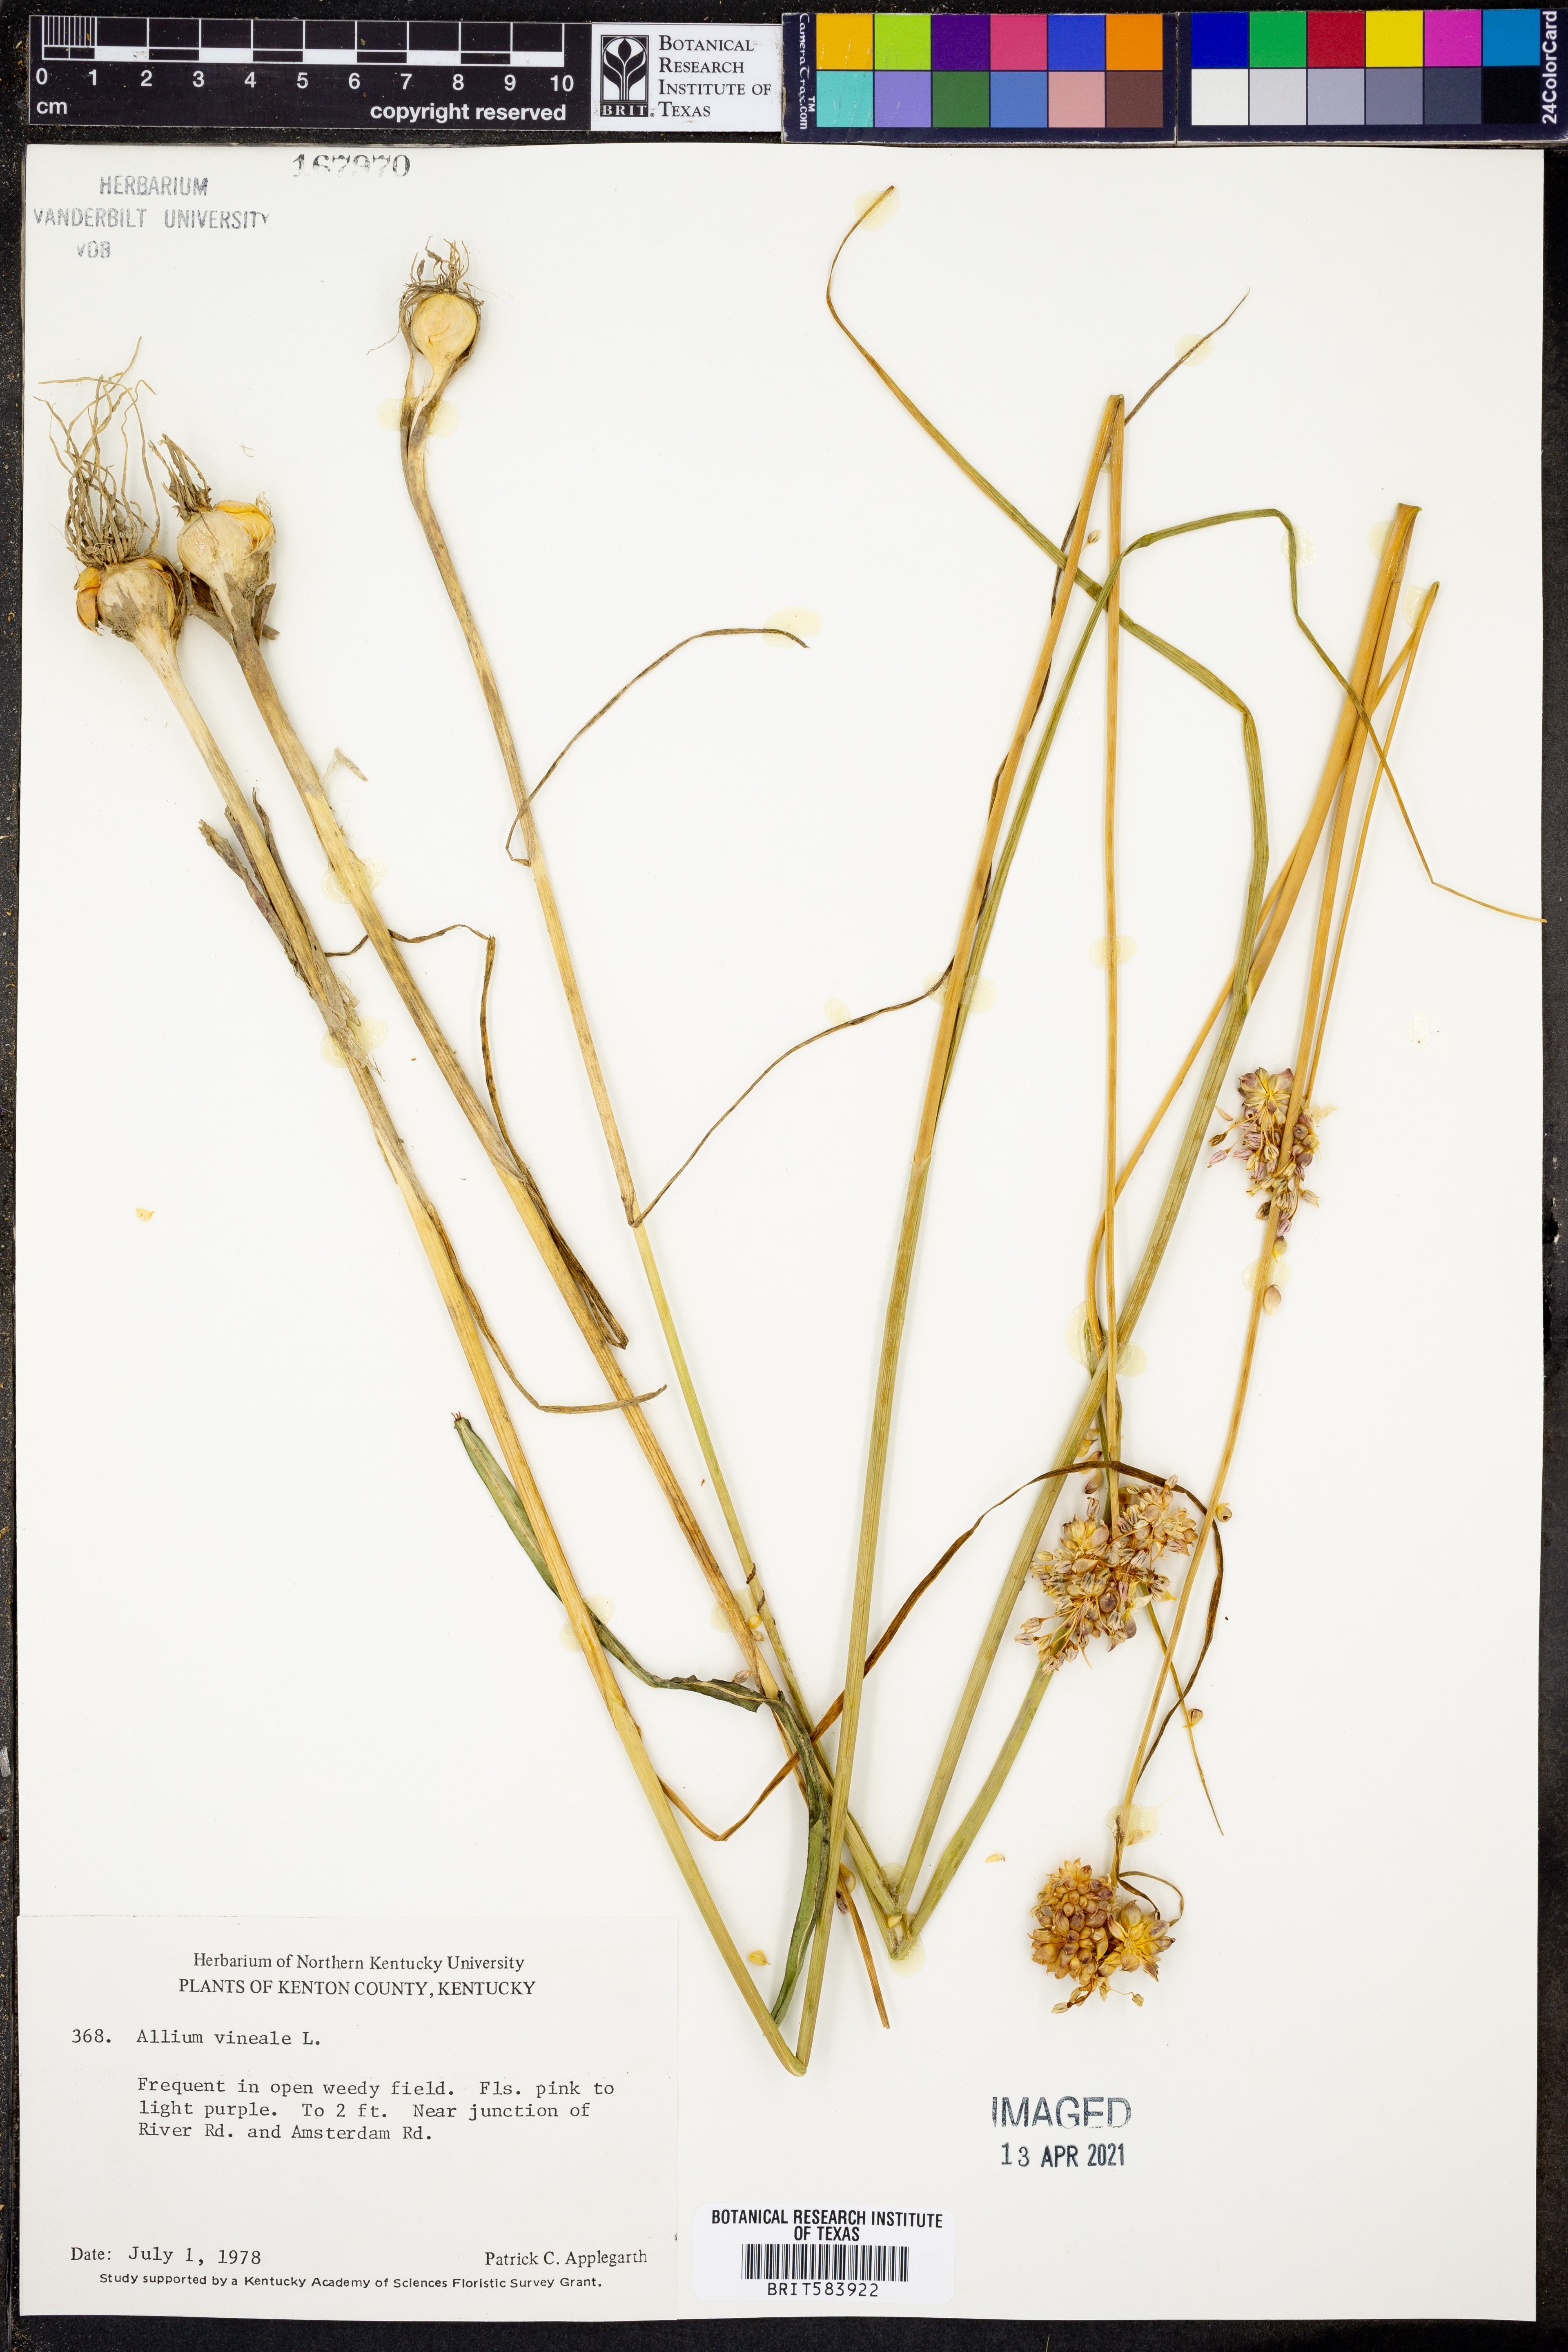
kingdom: Plantae
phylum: Tracheophyta
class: Liliopsida
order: Asparagales
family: Amaryllidaceae
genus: Allium
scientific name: Allium vineale
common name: Crow garlic
